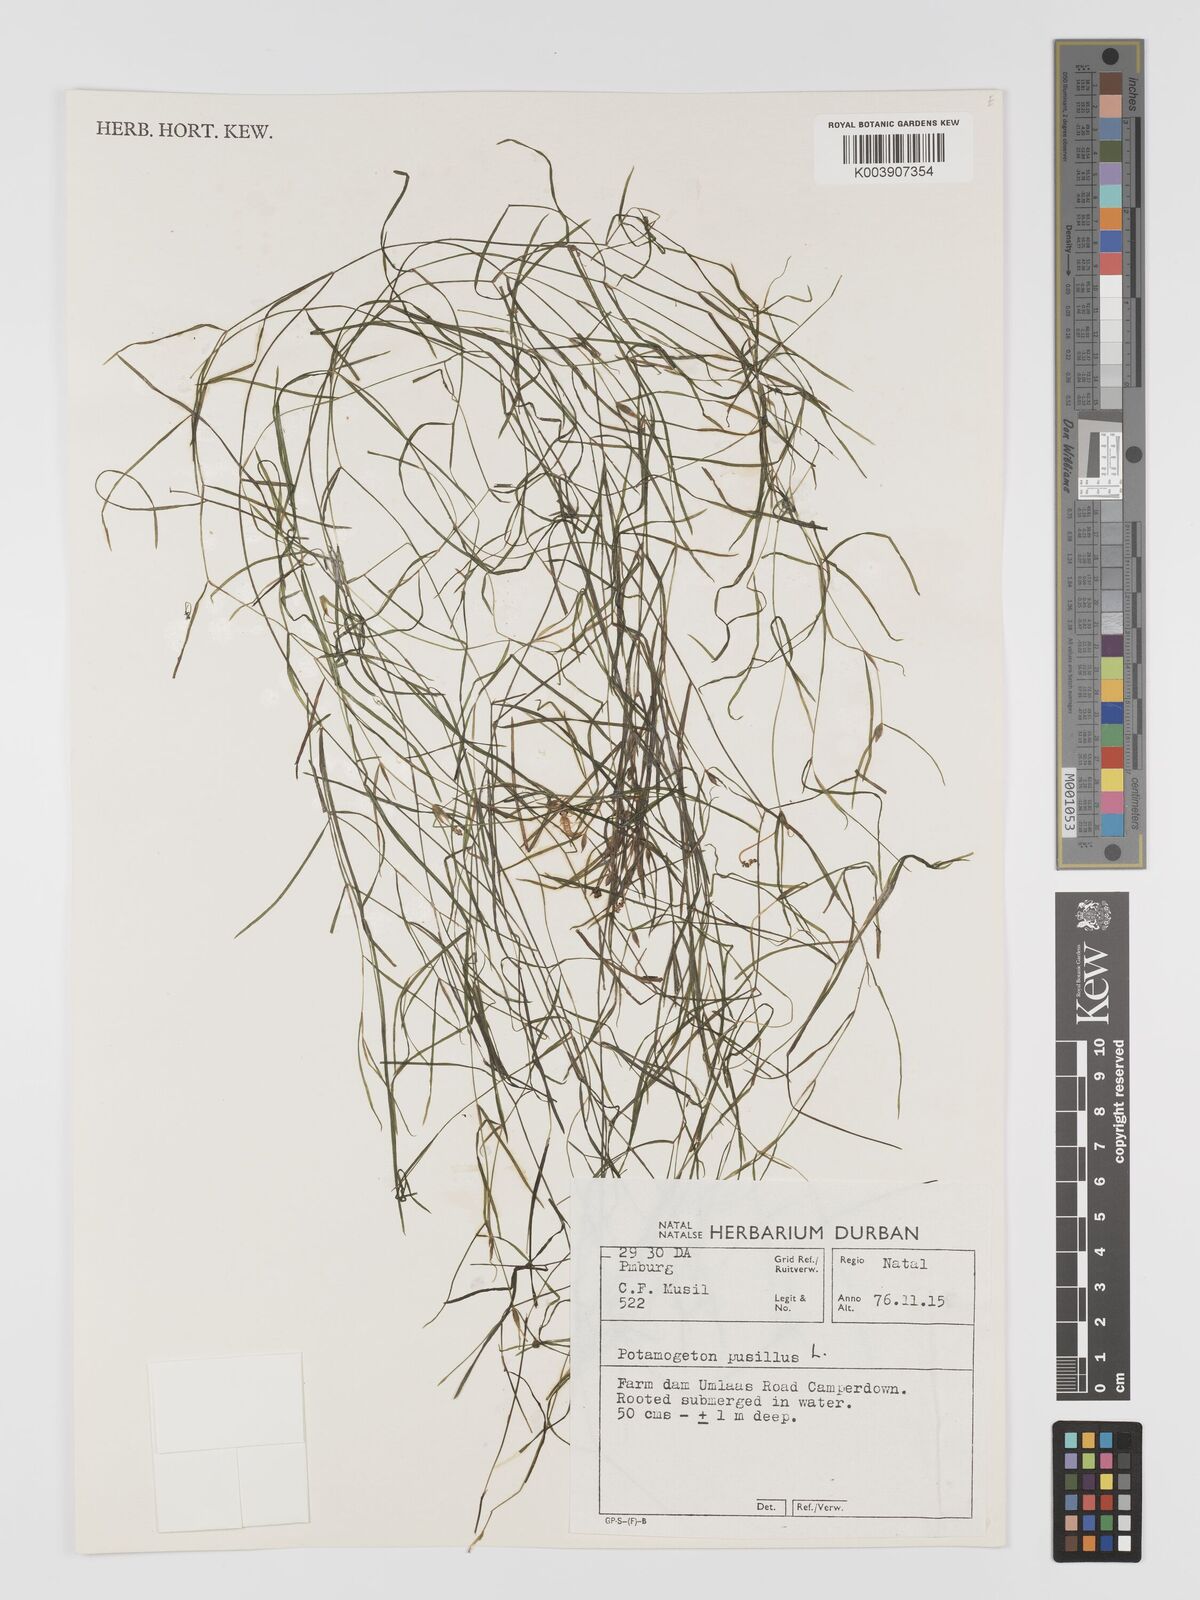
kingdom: Plantae
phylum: Tracheophyta
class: Liliopsida
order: Alismatales
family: Potamogetonaceae
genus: Potamogeton
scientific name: Potamogeton pusillus
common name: Lesser pondweed
